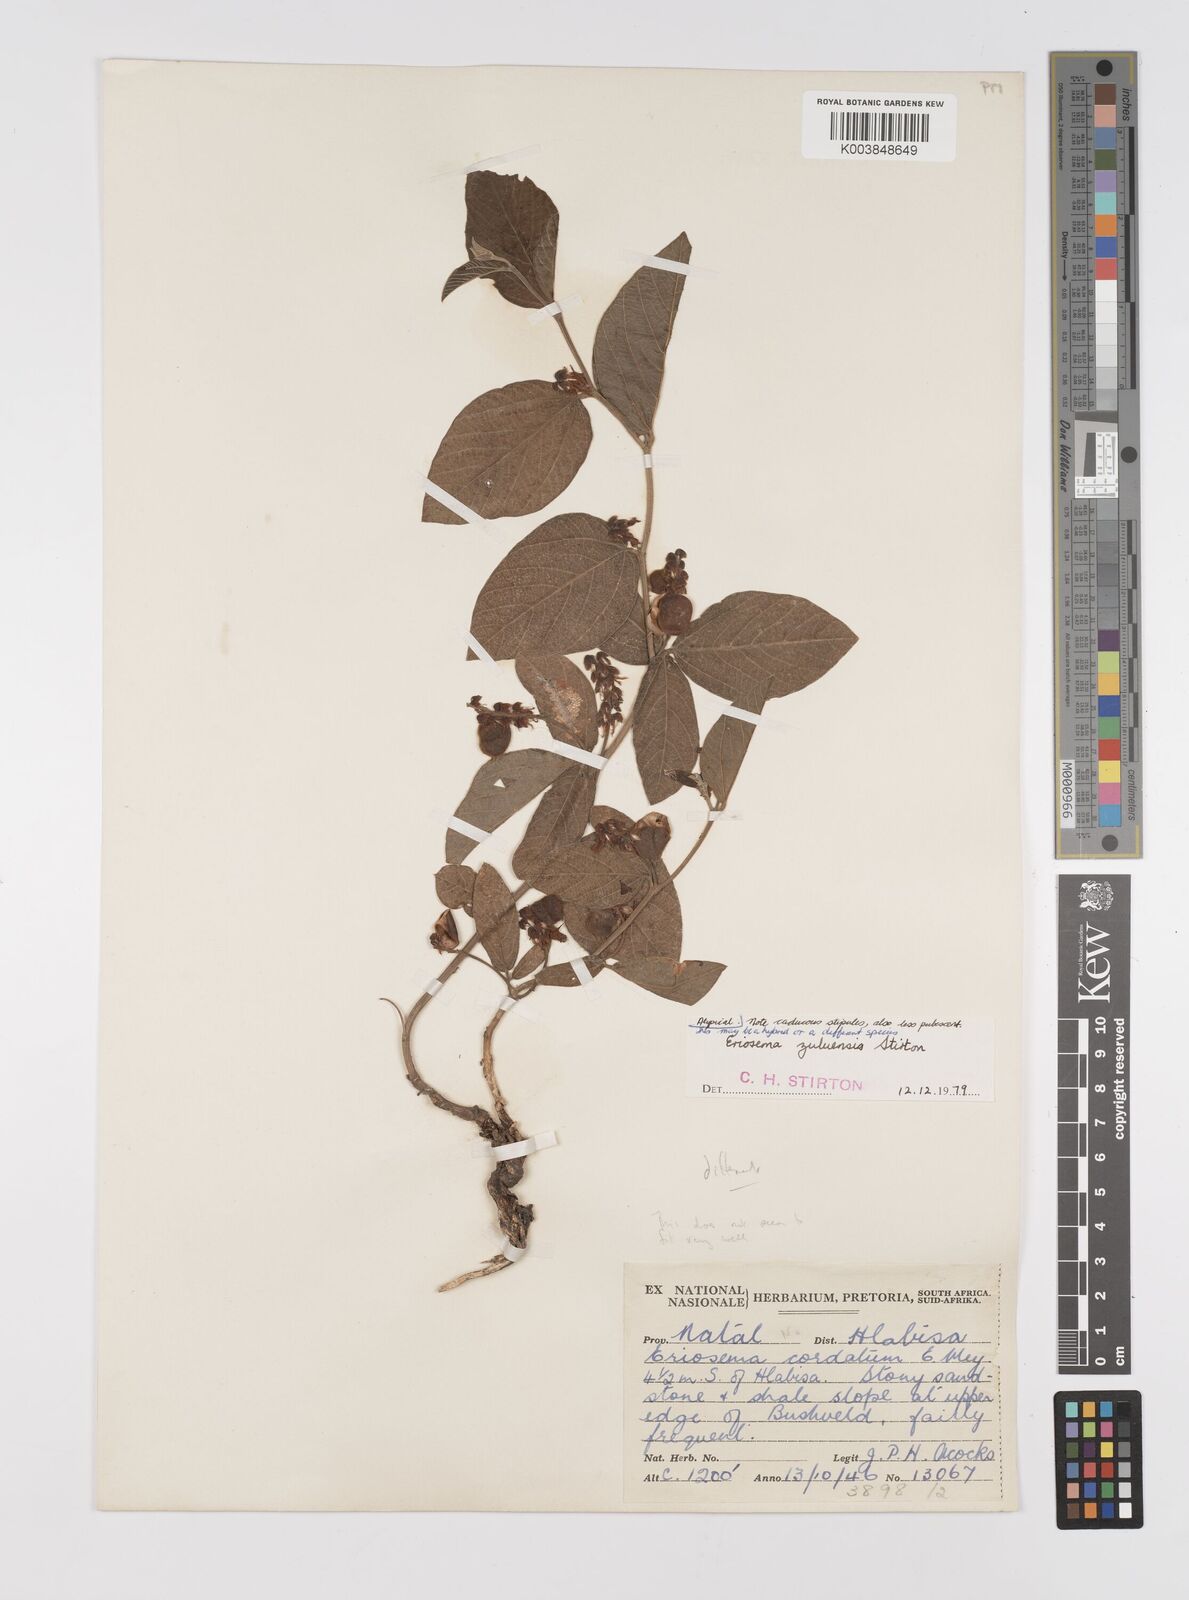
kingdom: Plantae
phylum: Tracheophyta
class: Magnoliopsida
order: Fabales
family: Fabaceae
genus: Eriosema
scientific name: Eriosema zuluense
